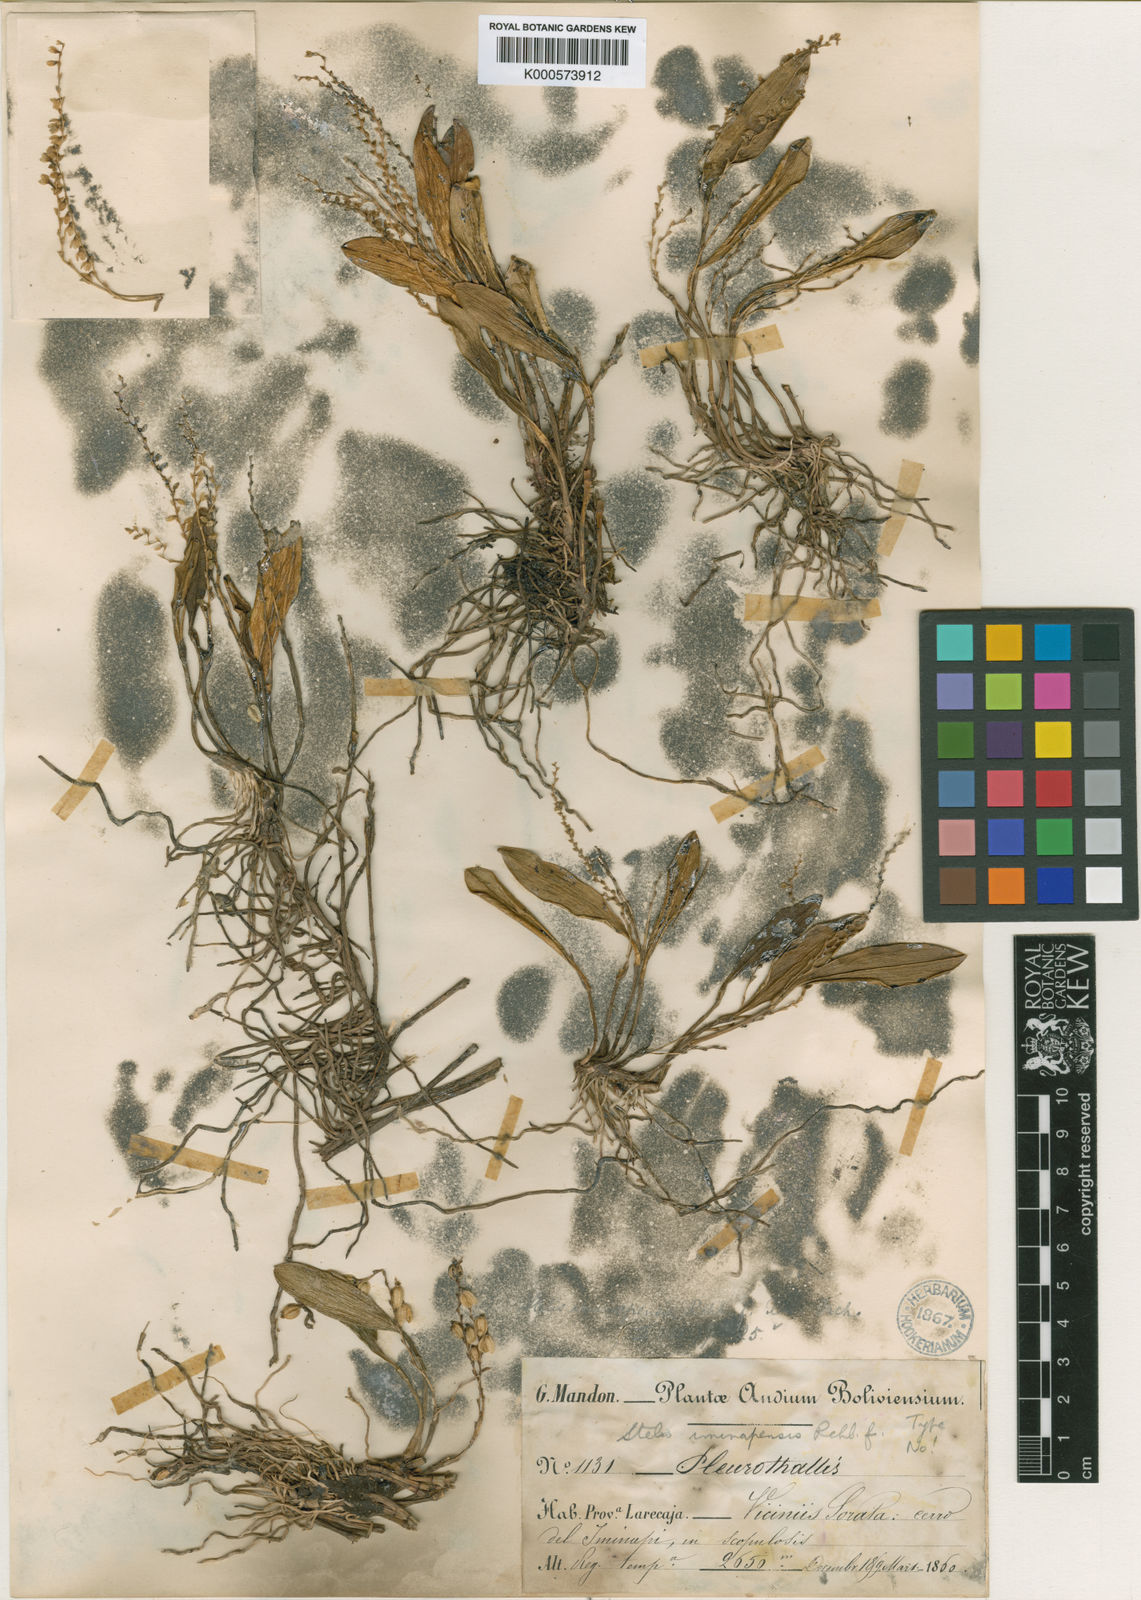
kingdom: Plantae
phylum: Tracheophyta
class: Liliopsida
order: Asparagales
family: Orchidaceae
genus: Stelis
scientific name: Stelis euspatha
